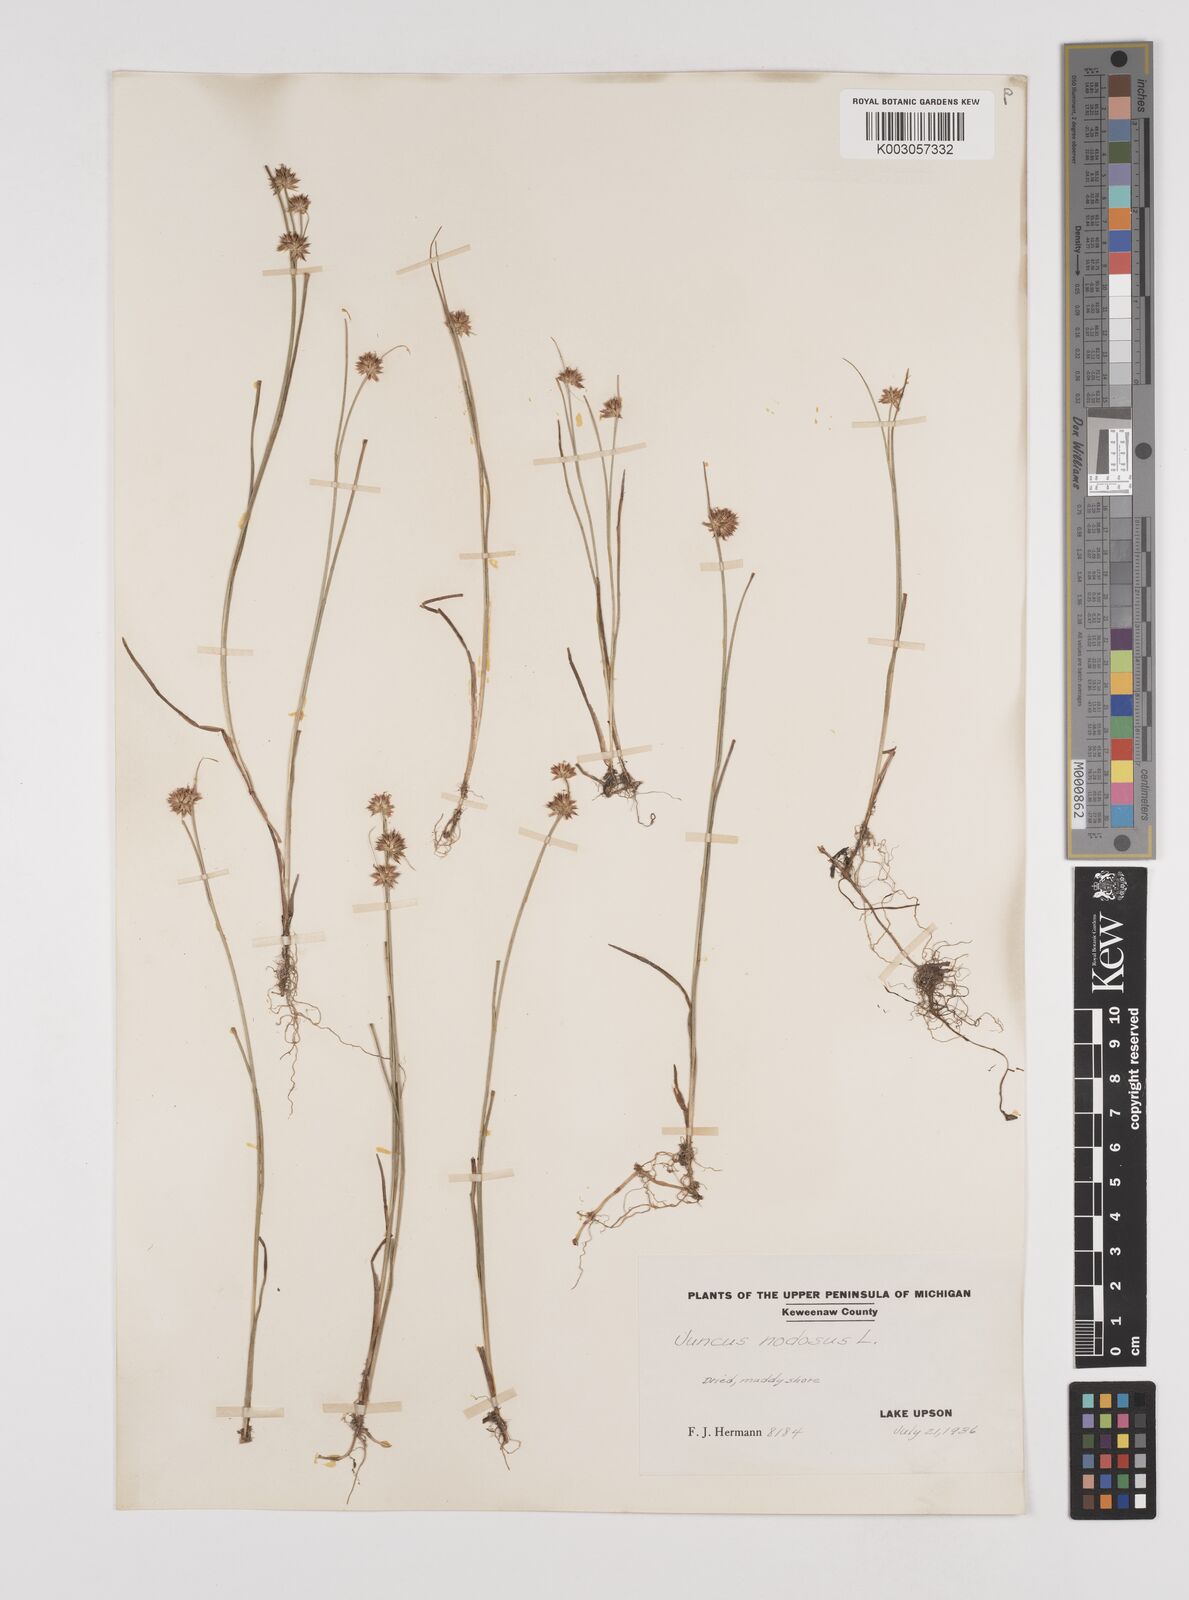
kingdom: Plantae
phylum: Tracheophyta
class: Liliopsida
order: Poales
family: Juncaceae
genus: Juncus
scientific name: Juncus nodosus
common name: Knotted rush
